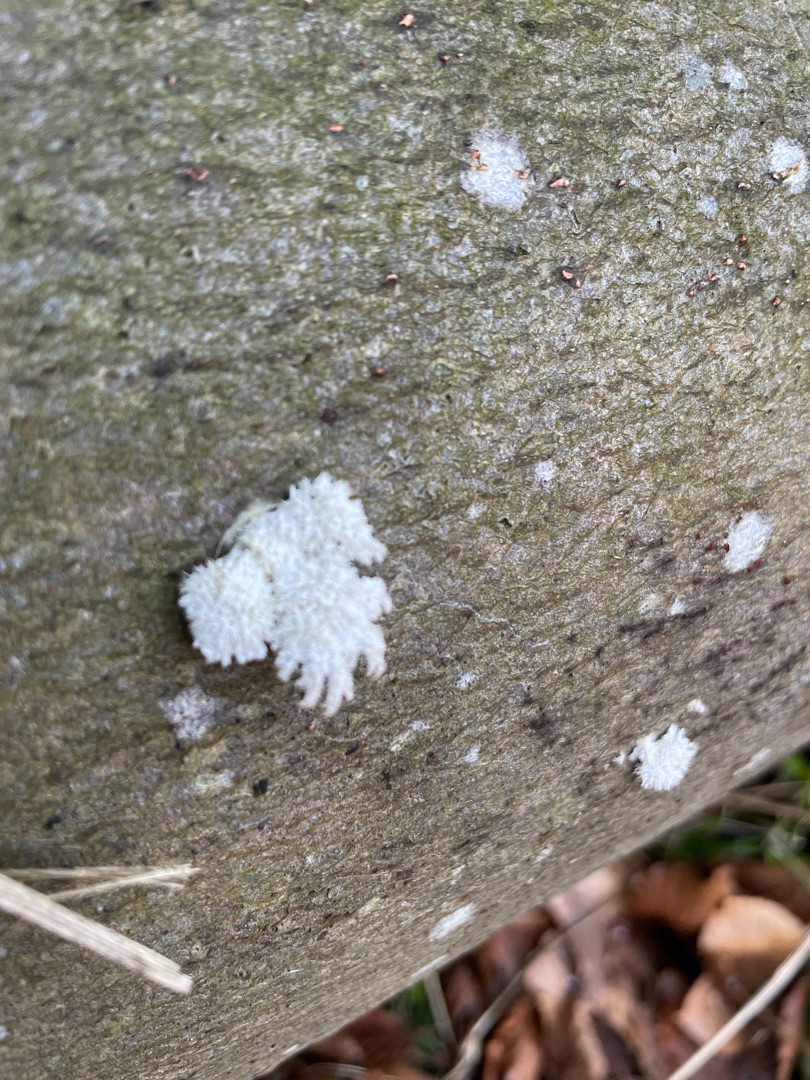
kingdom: Fungi
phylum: Basidiomycota
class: Agaricomycetes
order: Agaricales
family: Schizophyllaceae
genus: Schizophyllum
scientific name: Schizophyllum commune
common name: Kløvblad
